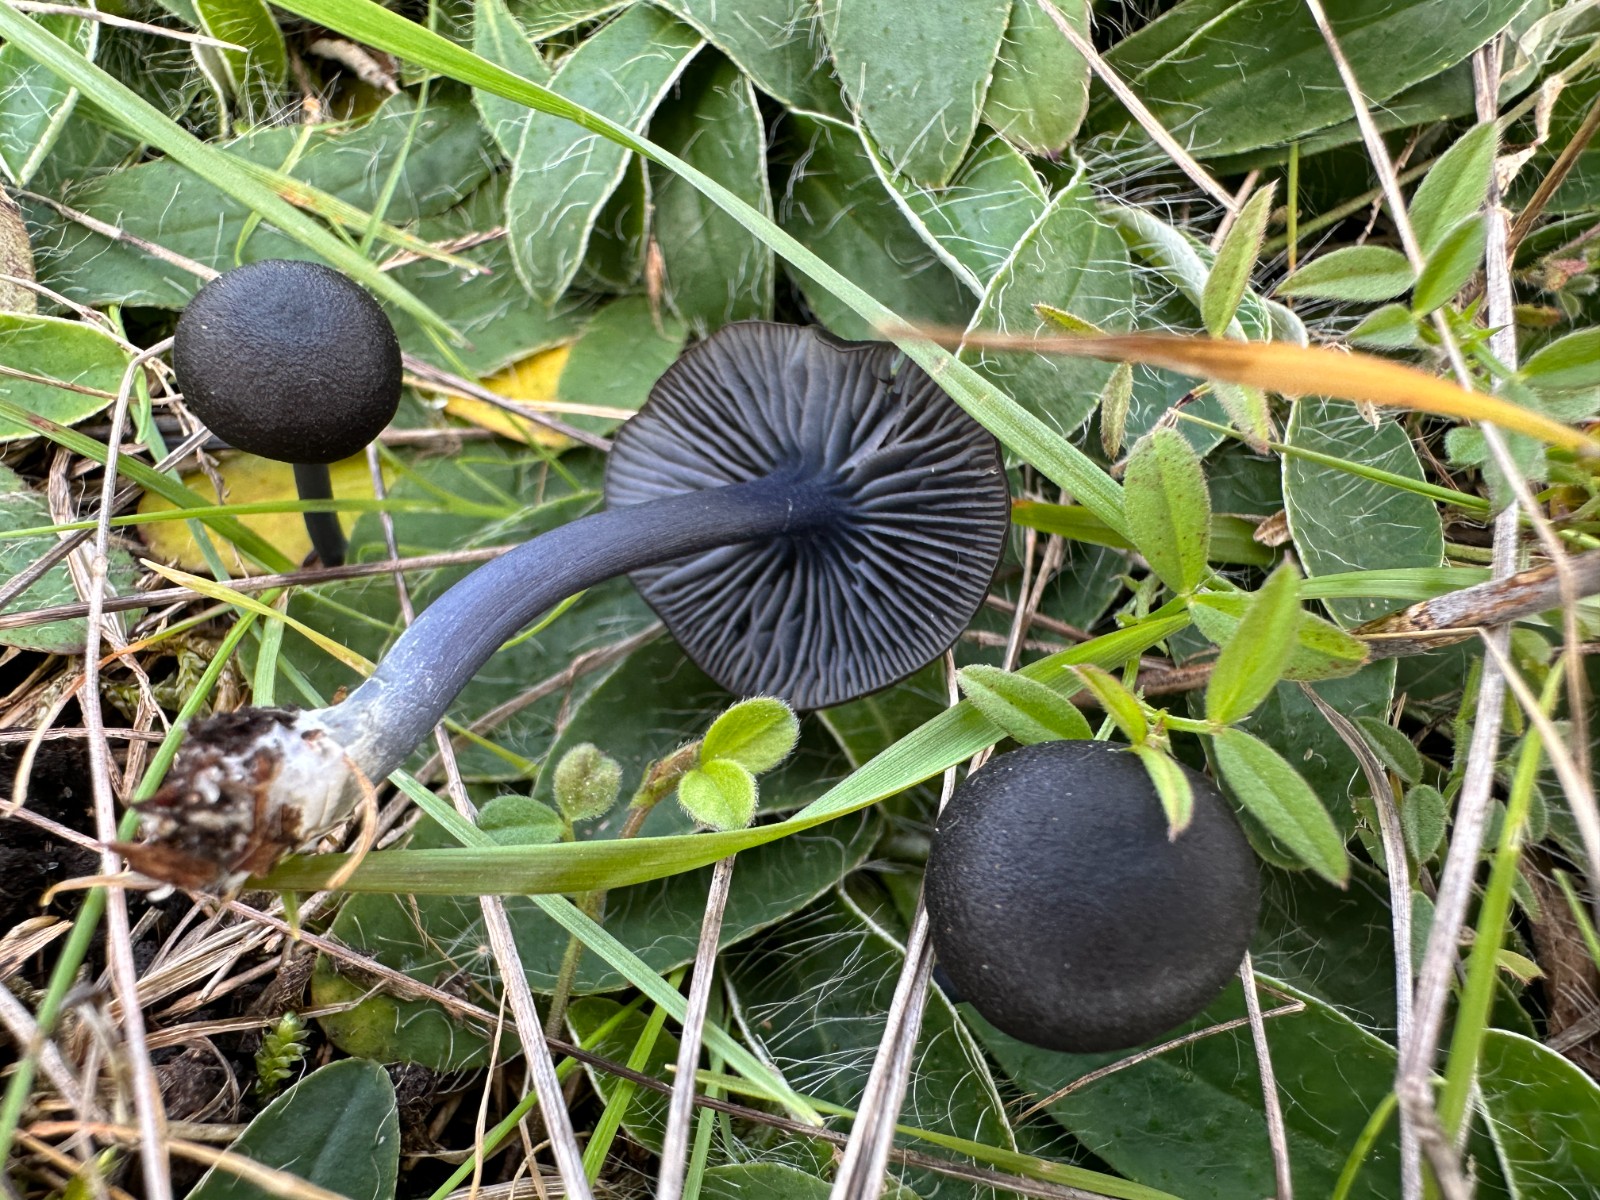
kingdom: Fungi
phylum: Basidiomycota
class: Agaricomycetes
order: Agaricales
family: Entolomataceae
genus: Entoloma
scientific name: Entoloma chalybeum
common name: blåbladet rødblad
